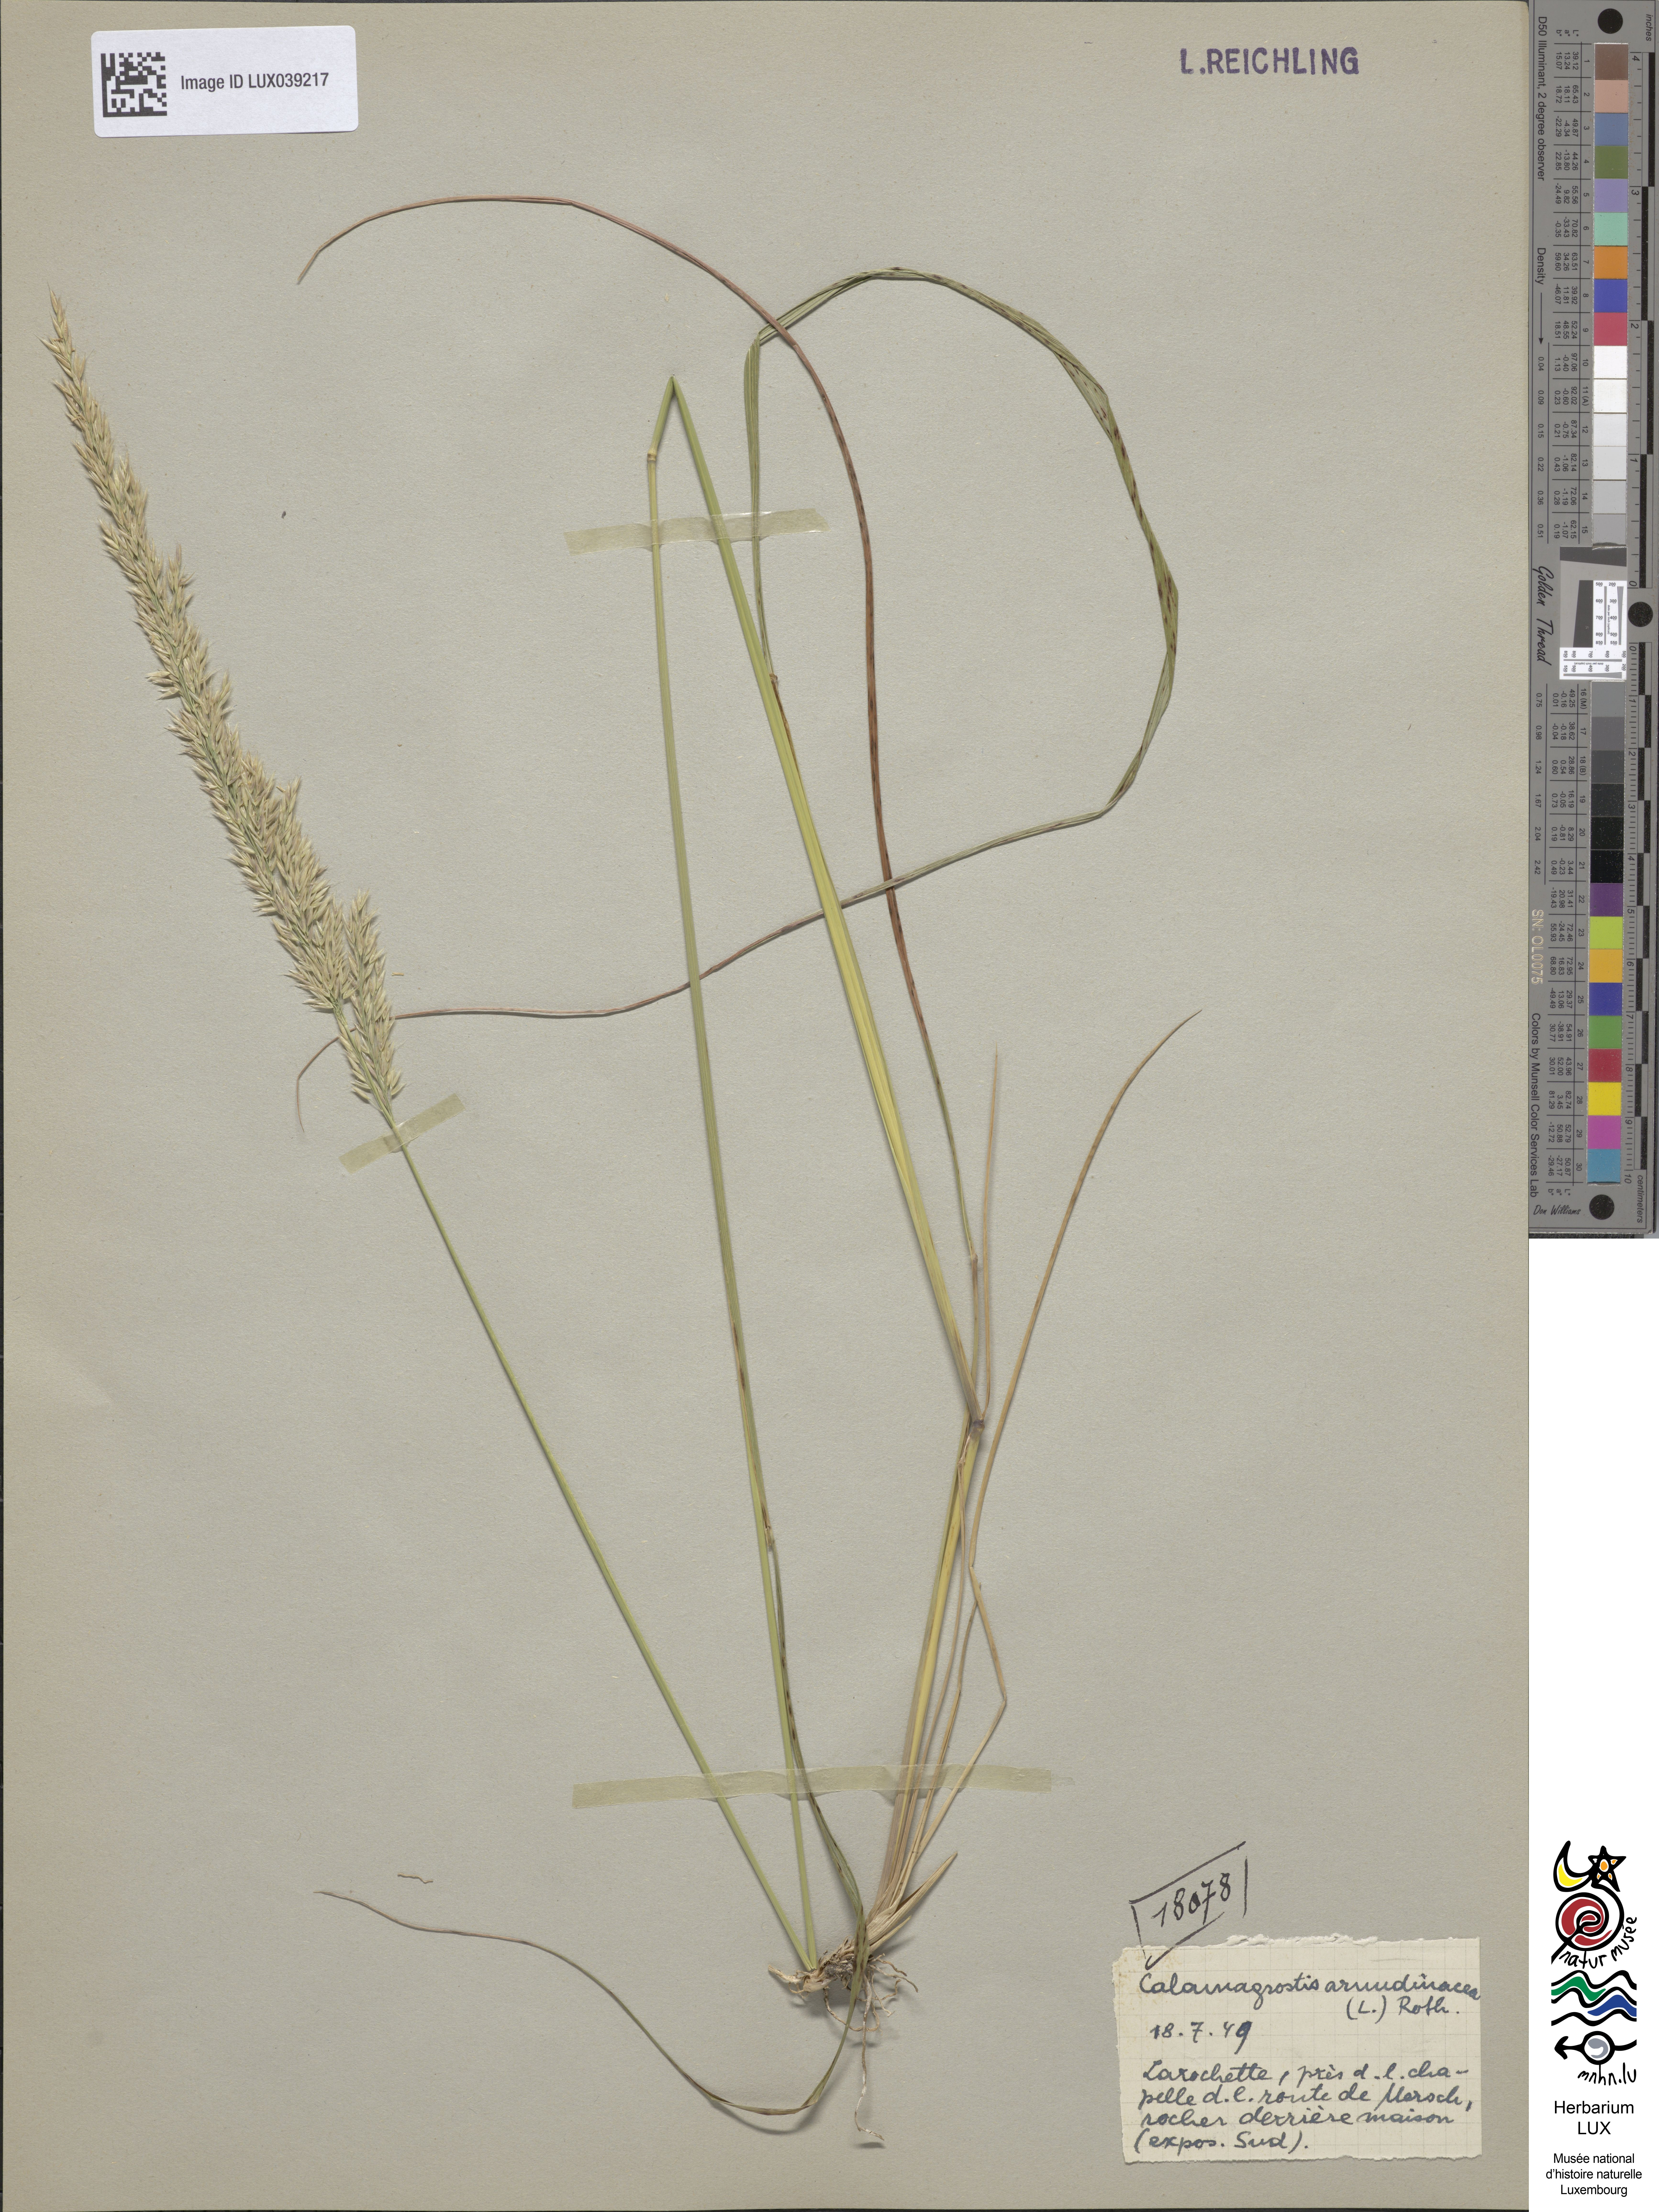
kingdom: Plantae
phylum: Tracheophyta
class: Liliopsida
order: Poales
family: Poaceae
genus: Calamagrostis
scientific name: Calamagrostis arundinacea
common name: Metskastik
